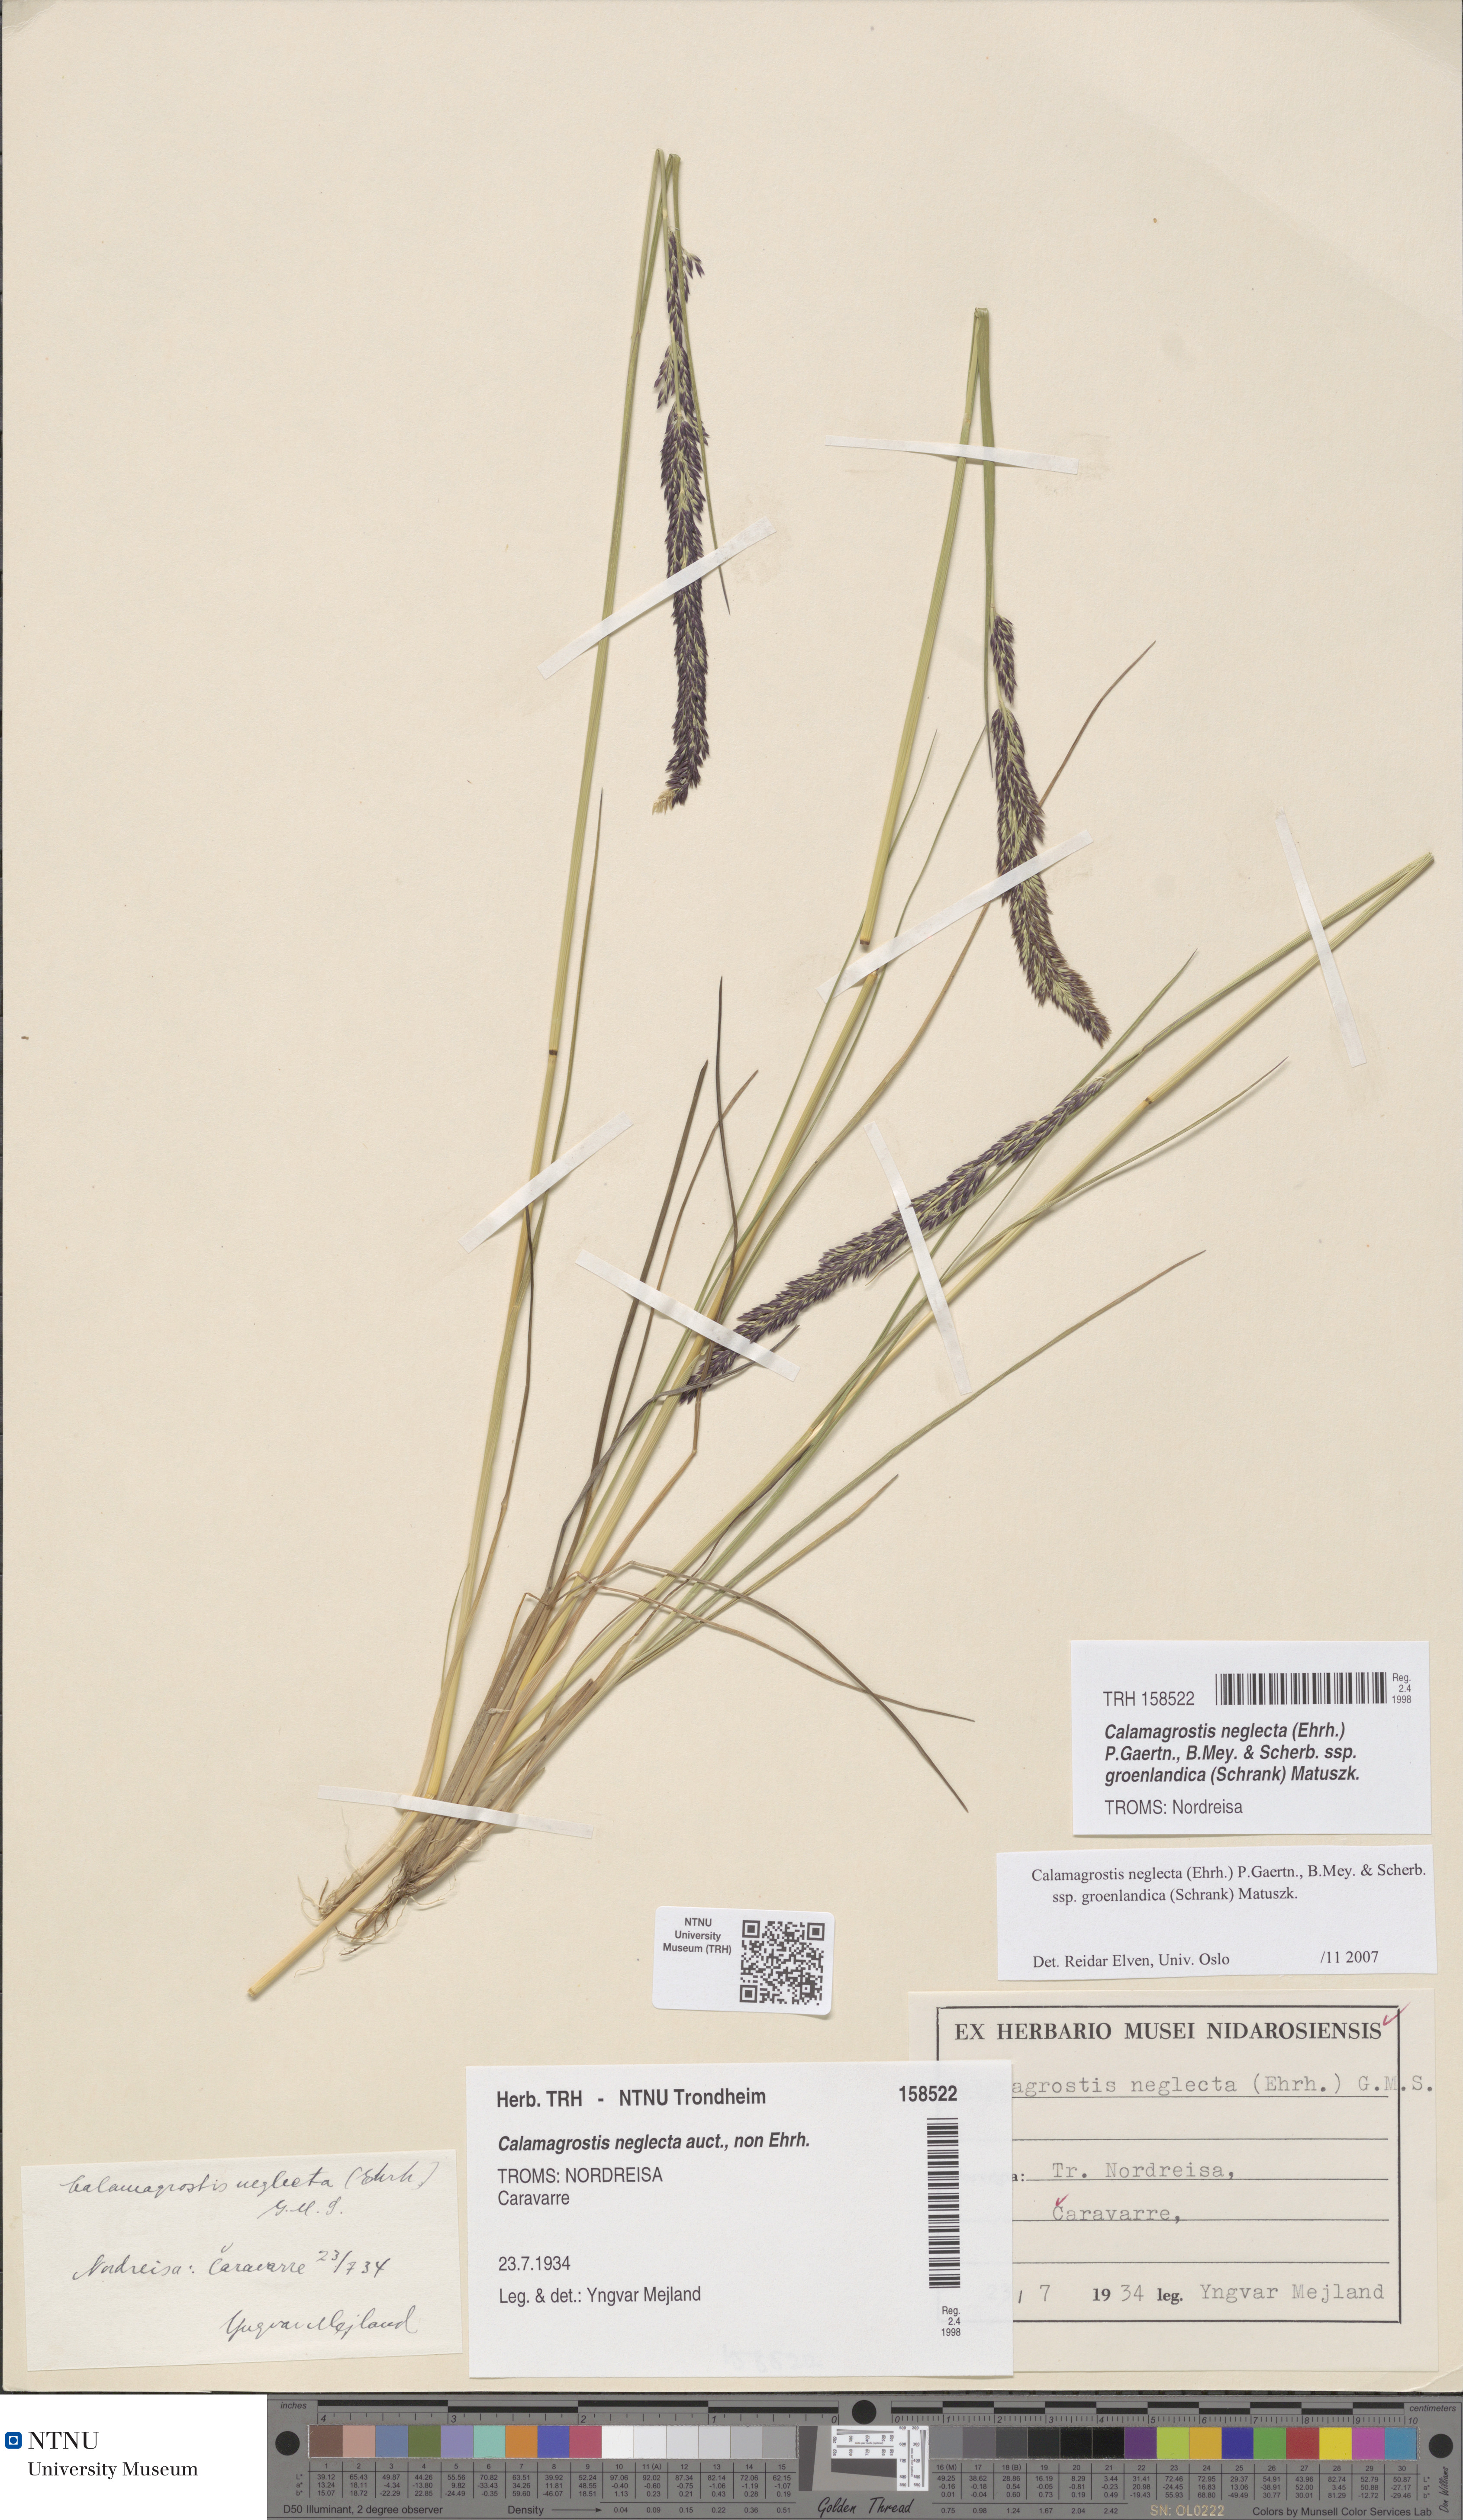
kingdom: Plantae
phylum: Tracheophyta
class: Liliopsida
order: Poales
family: Poaceae
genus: Calamagrostis
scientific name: Calamagrostis stricta
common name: Narrow small-reed
